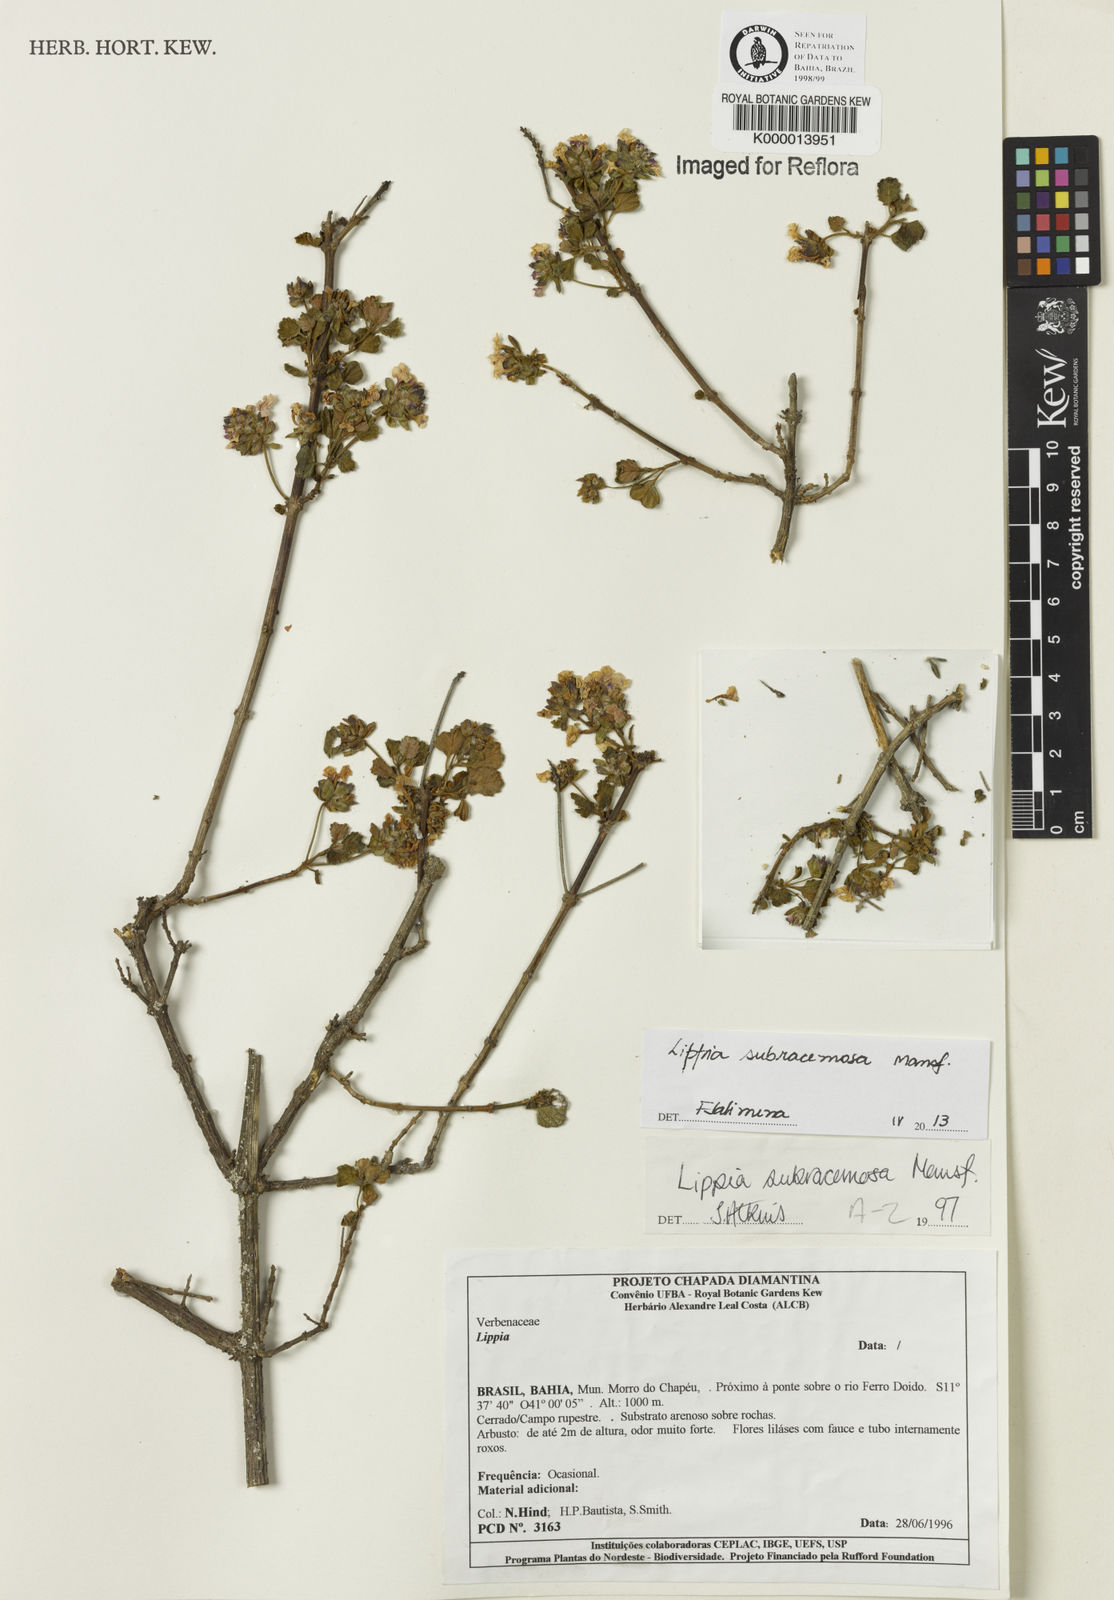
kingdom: Plantae
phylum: Tracheophyta
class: Magnoliopsida
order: Lamiales
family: Verbenaceae
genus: Lippia
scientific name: Lippia subracemosa
